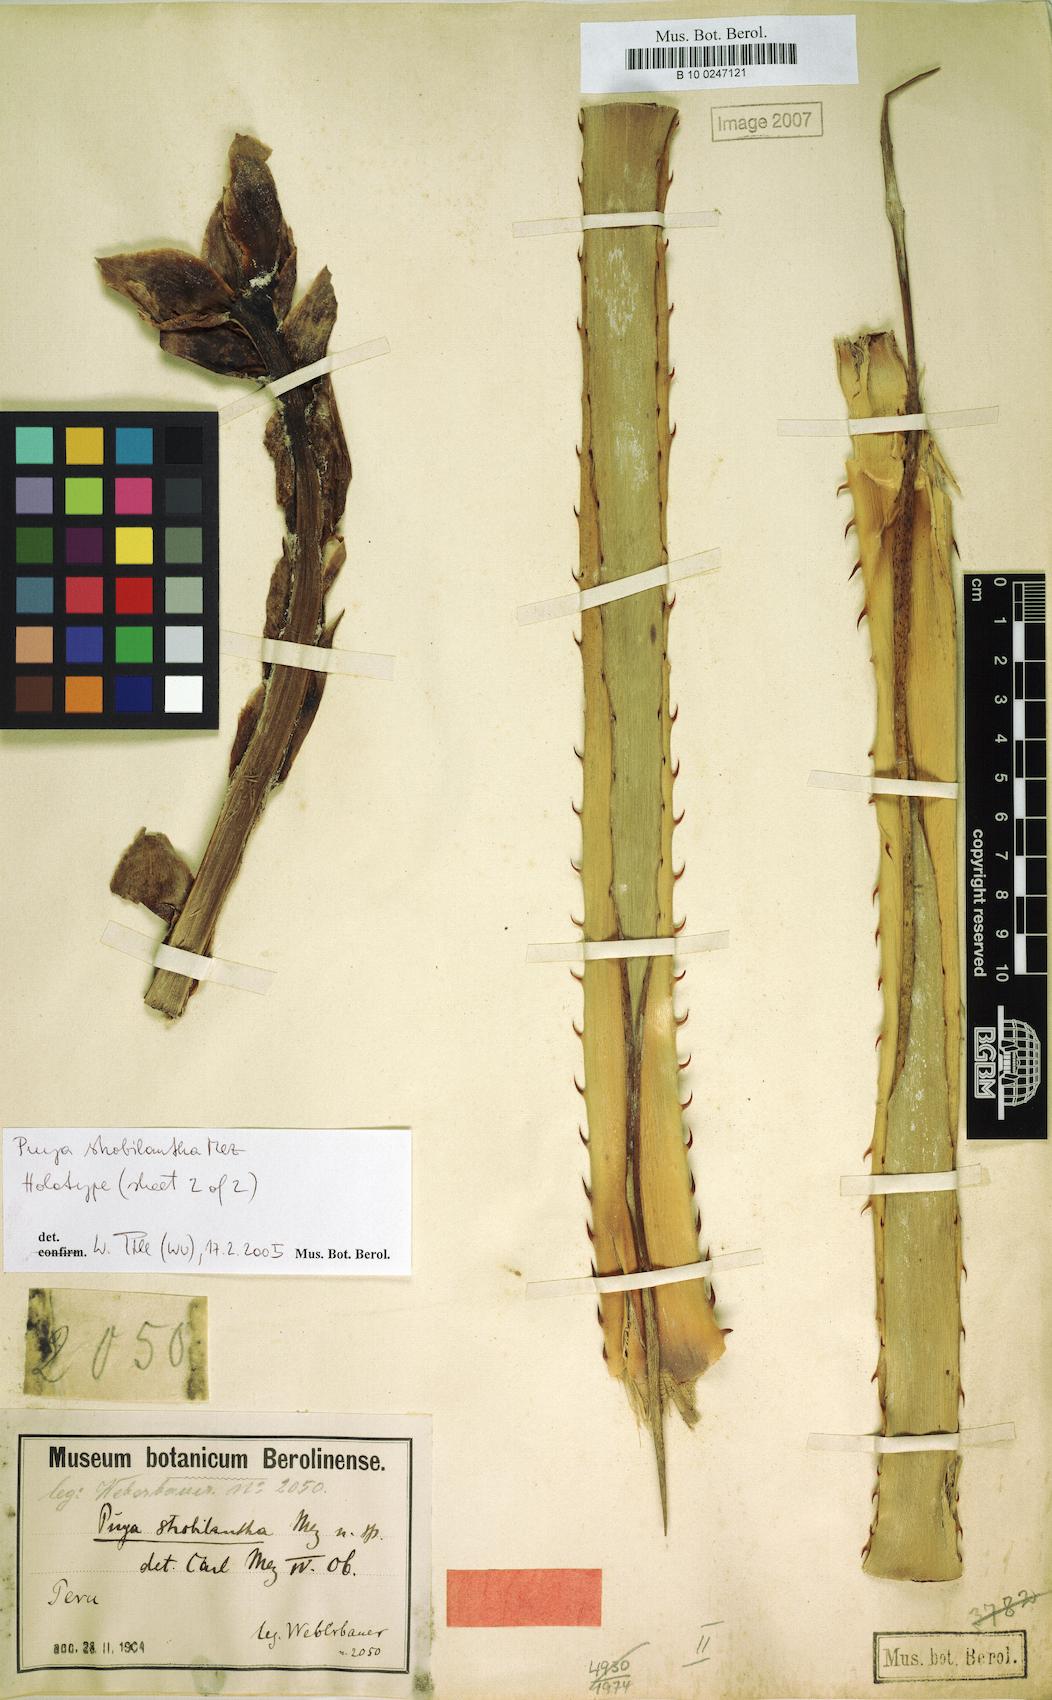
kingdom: Plantae
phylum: Tracheophyta
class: Liliopsida
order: Poales
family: Bromeliaceae
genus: Puya
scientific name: Puya strobilantha
